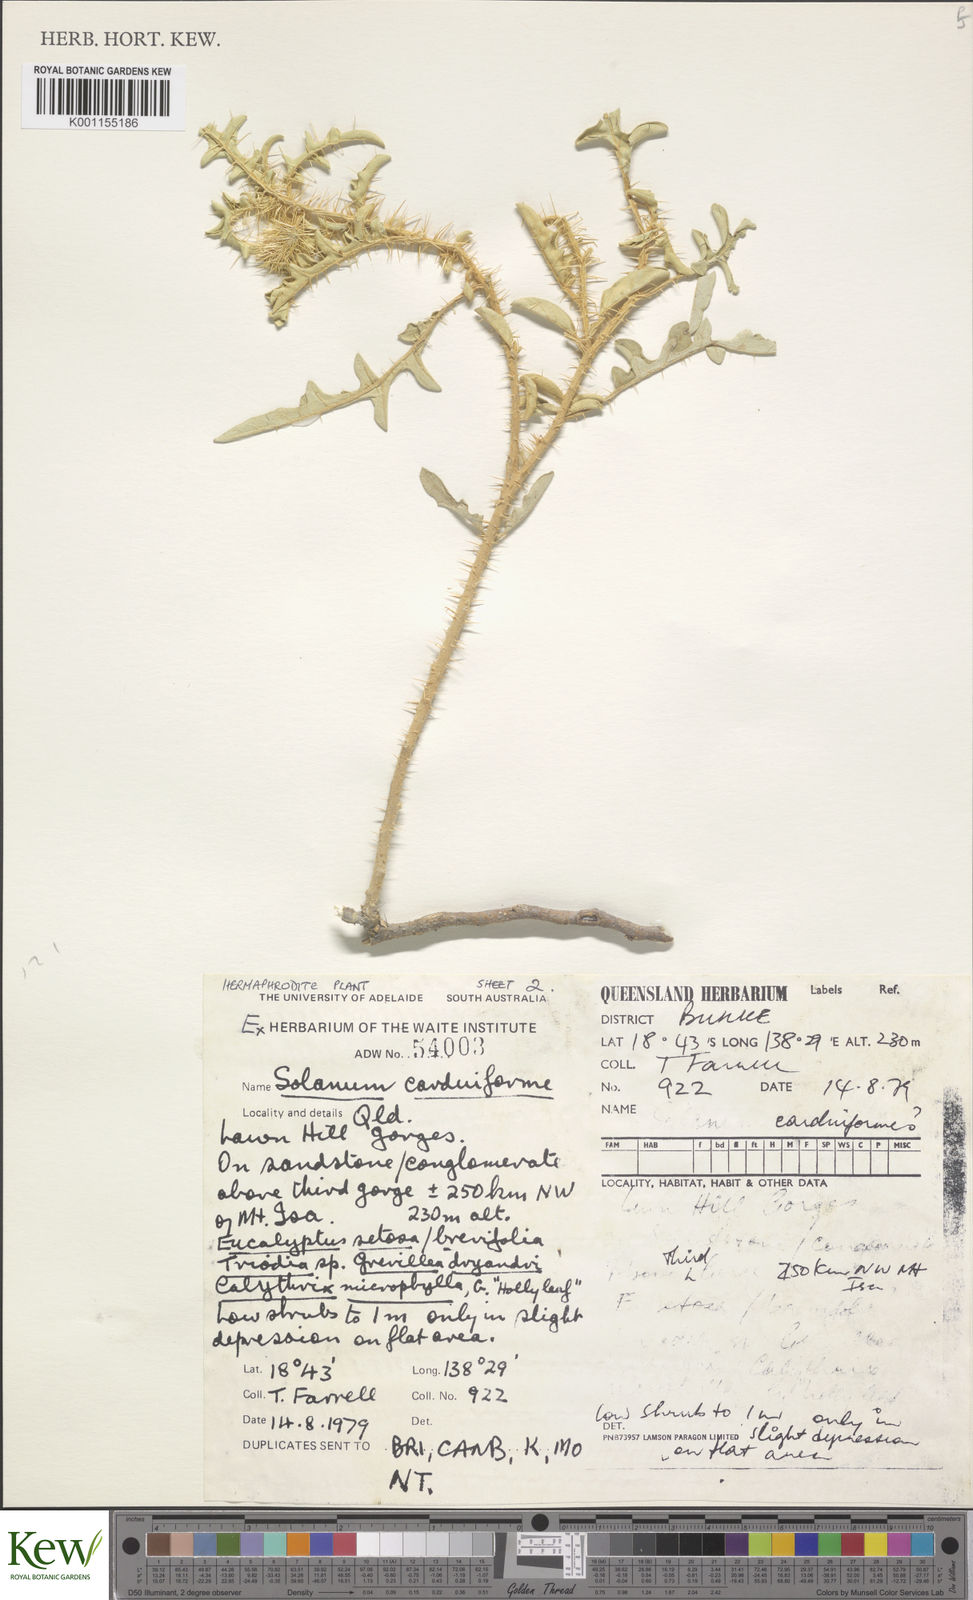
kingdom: Plantae
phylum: Tracheophyta
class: Magnoliopsida
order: Solanales
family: Solanaceae
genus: Solanum
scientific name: Solanum carduiforme
